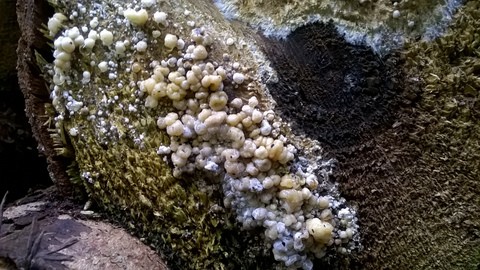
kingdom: Fungi
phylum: Ascomycota
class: Sordariomycetes
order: Xylariales
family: Hypoxylaceae
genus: Nodulisporium
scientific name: Nodulisporium cecidiogenes
